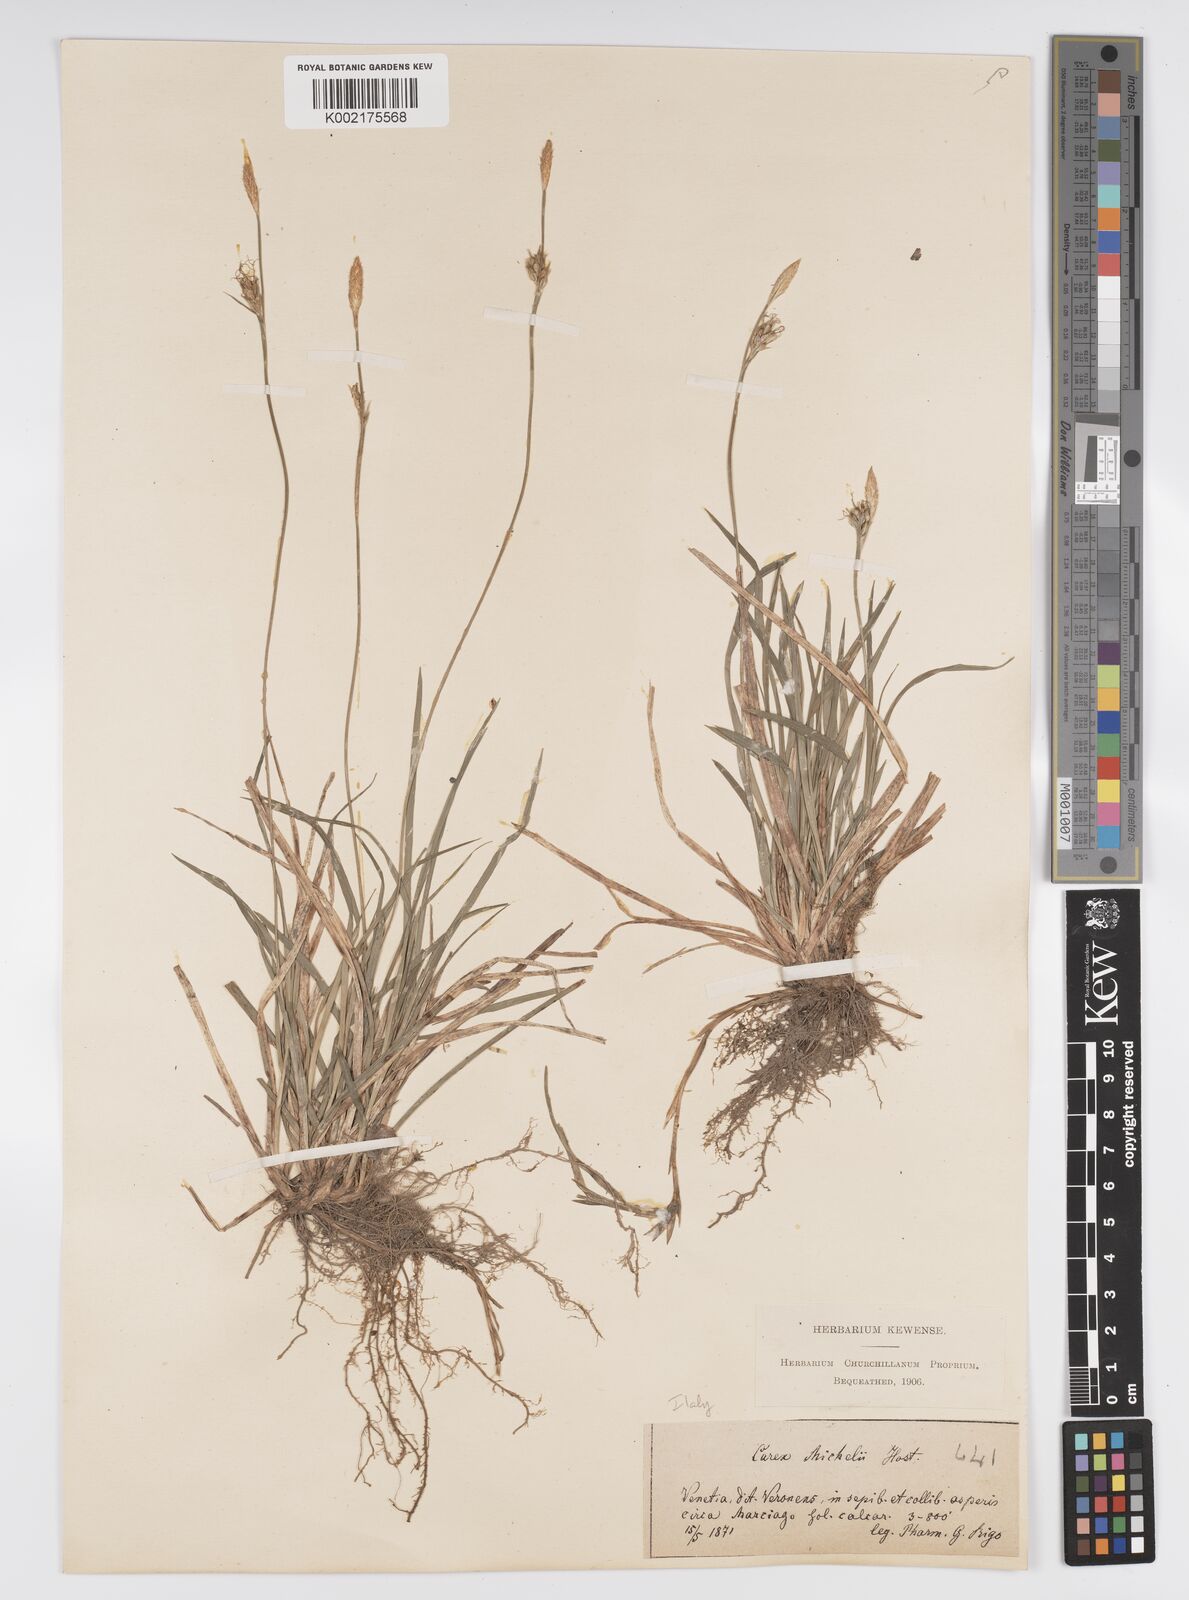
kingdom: Plantae
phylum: Tracheophyta
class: Liliopsida
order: Poales
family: Cyperaceae
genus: Carex
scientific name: Carex michelii
